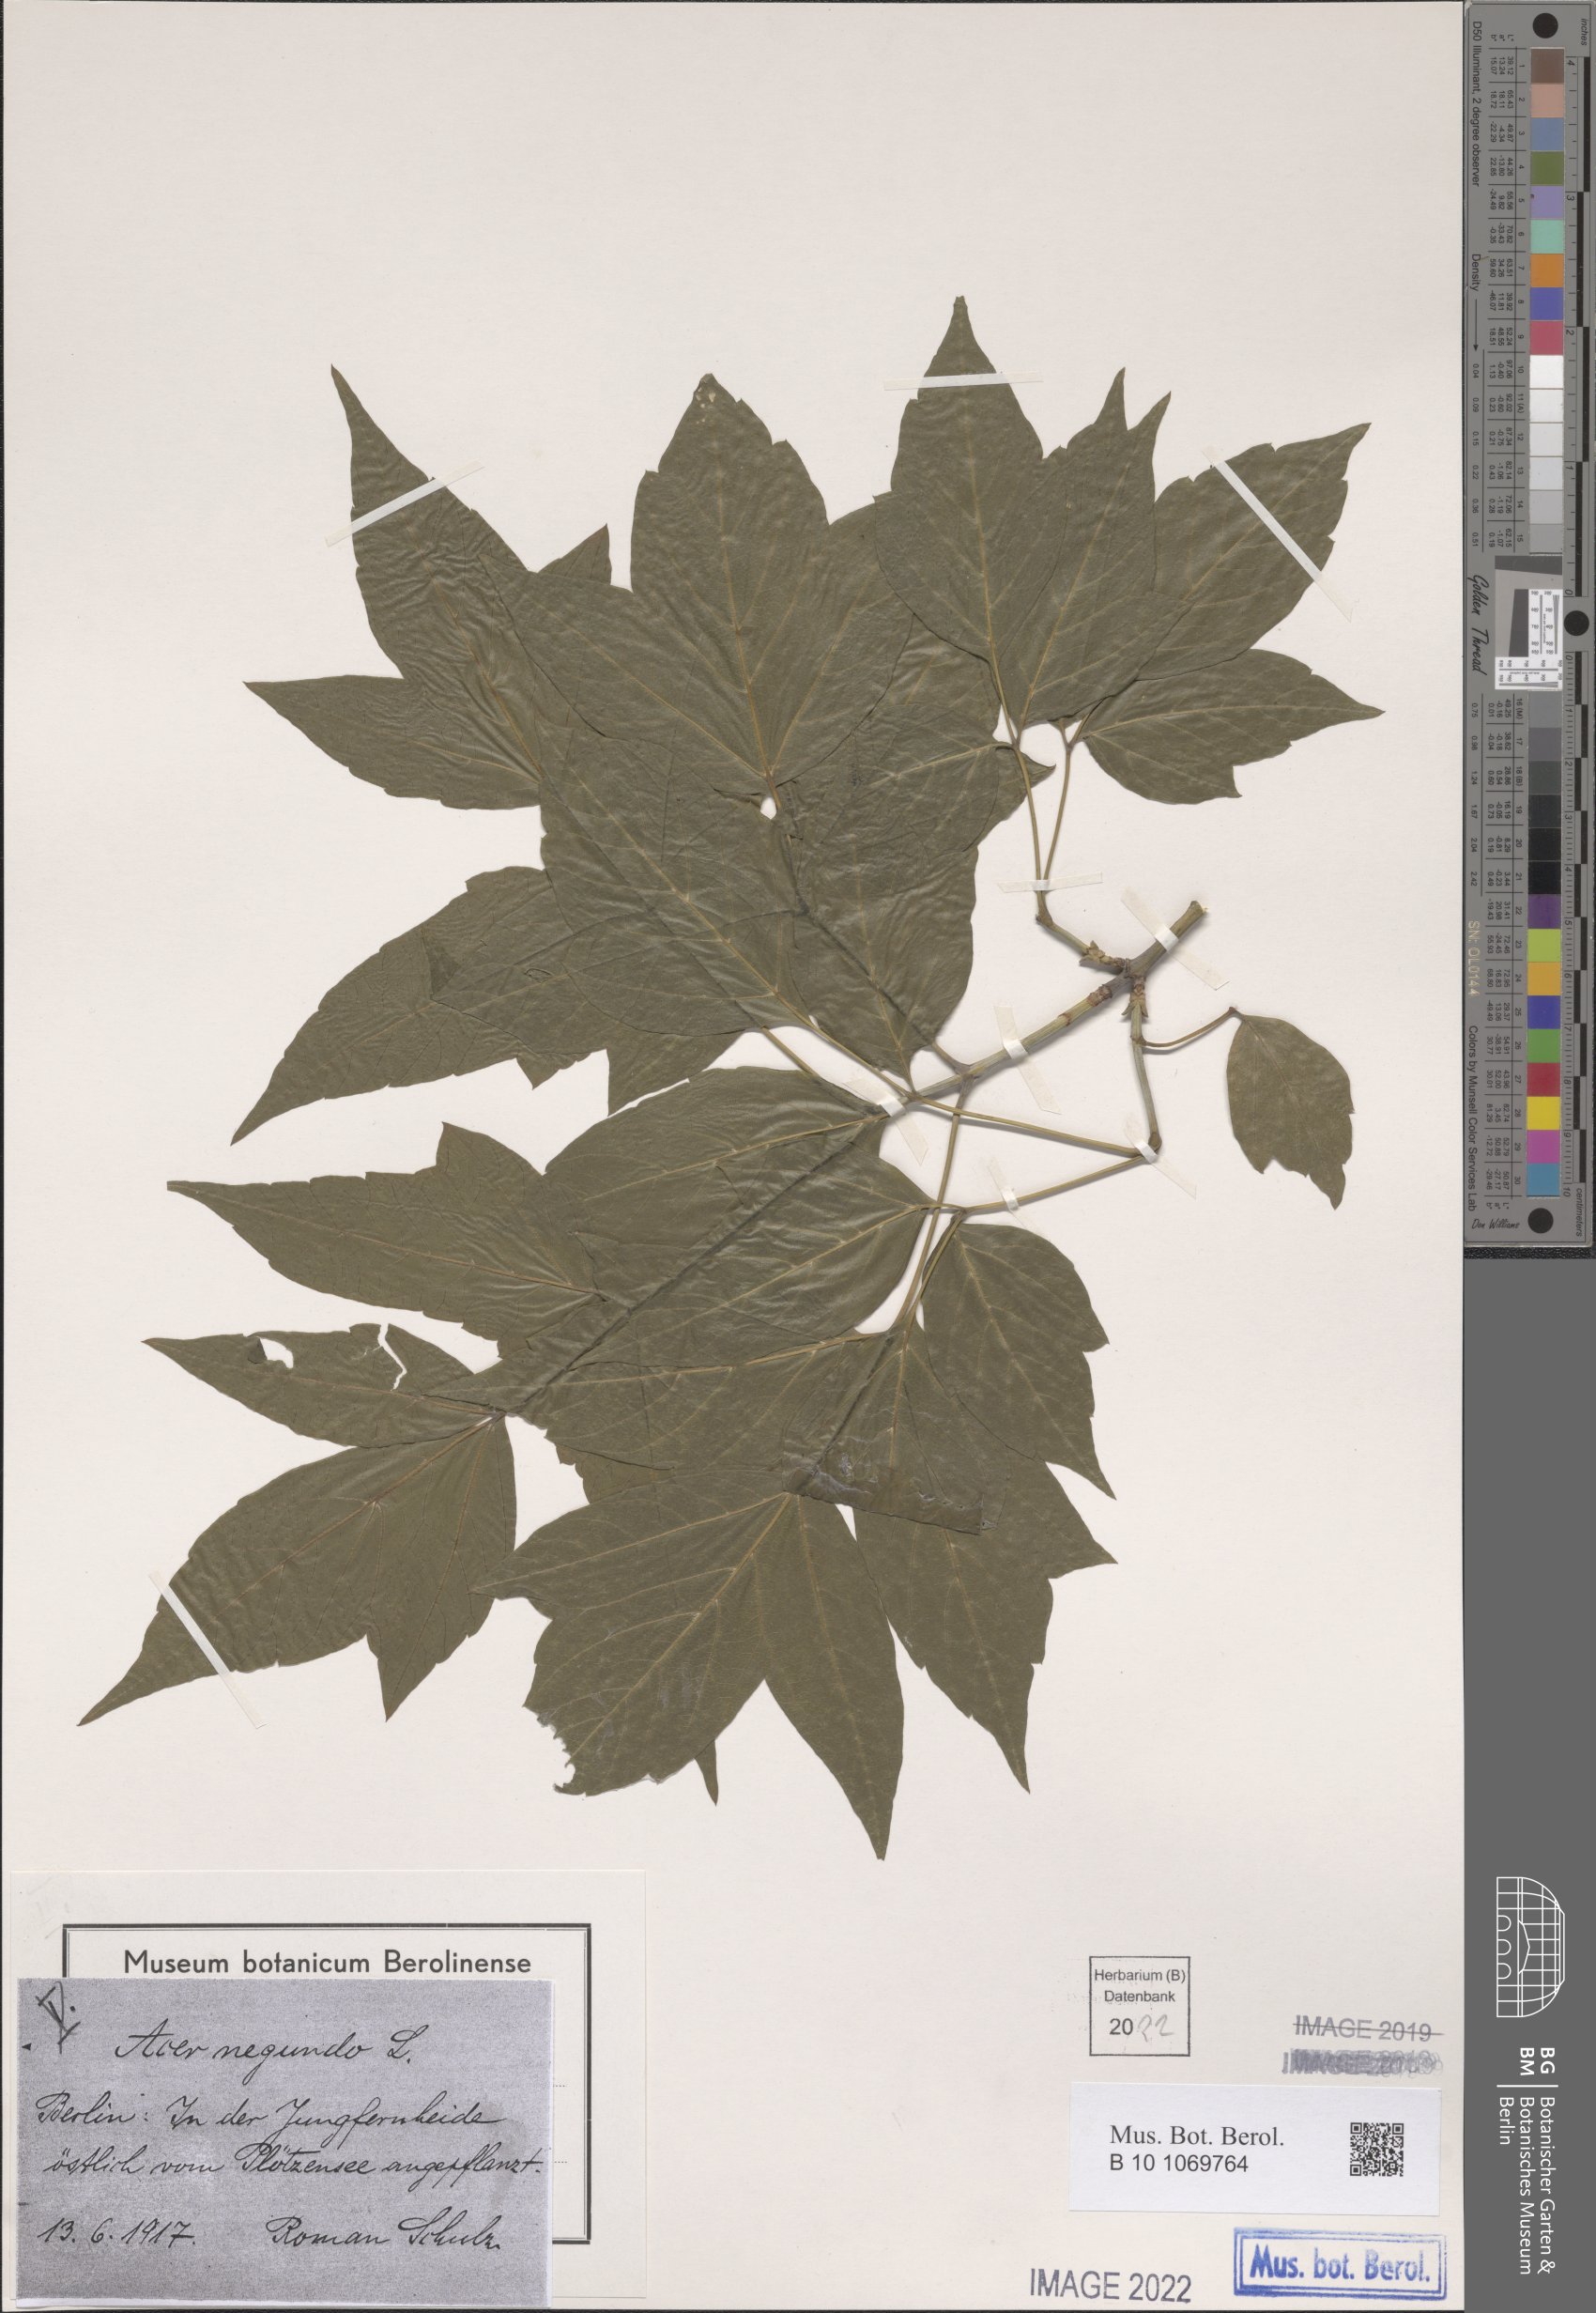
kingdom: Plantae
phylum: Tracheophyta
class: Magnoliopsida
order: Sapindales
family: Sapindaceae
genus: Acer
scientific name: Acer negundo
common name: Ashleaf maple
